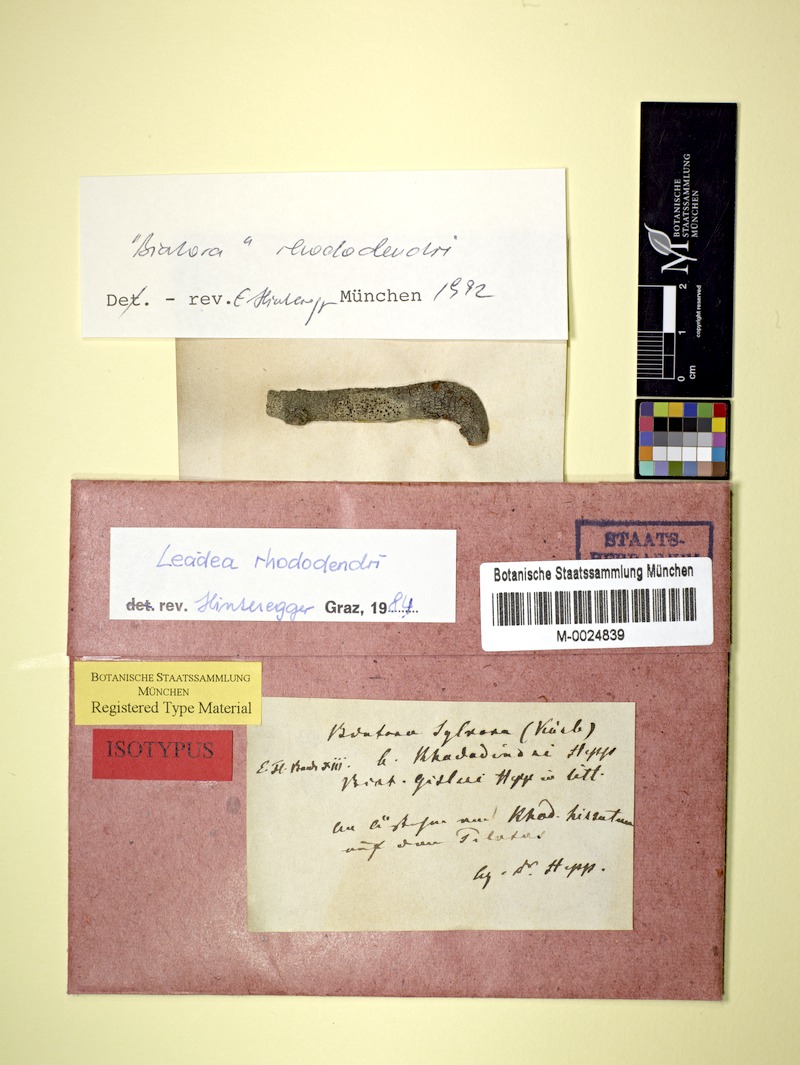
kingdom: Fungi
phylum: Ascomycota
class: Lecanoromycetes
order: Lecideales
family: Lecideaceae
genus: Lecidea
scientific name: Lecidea rhododendri
